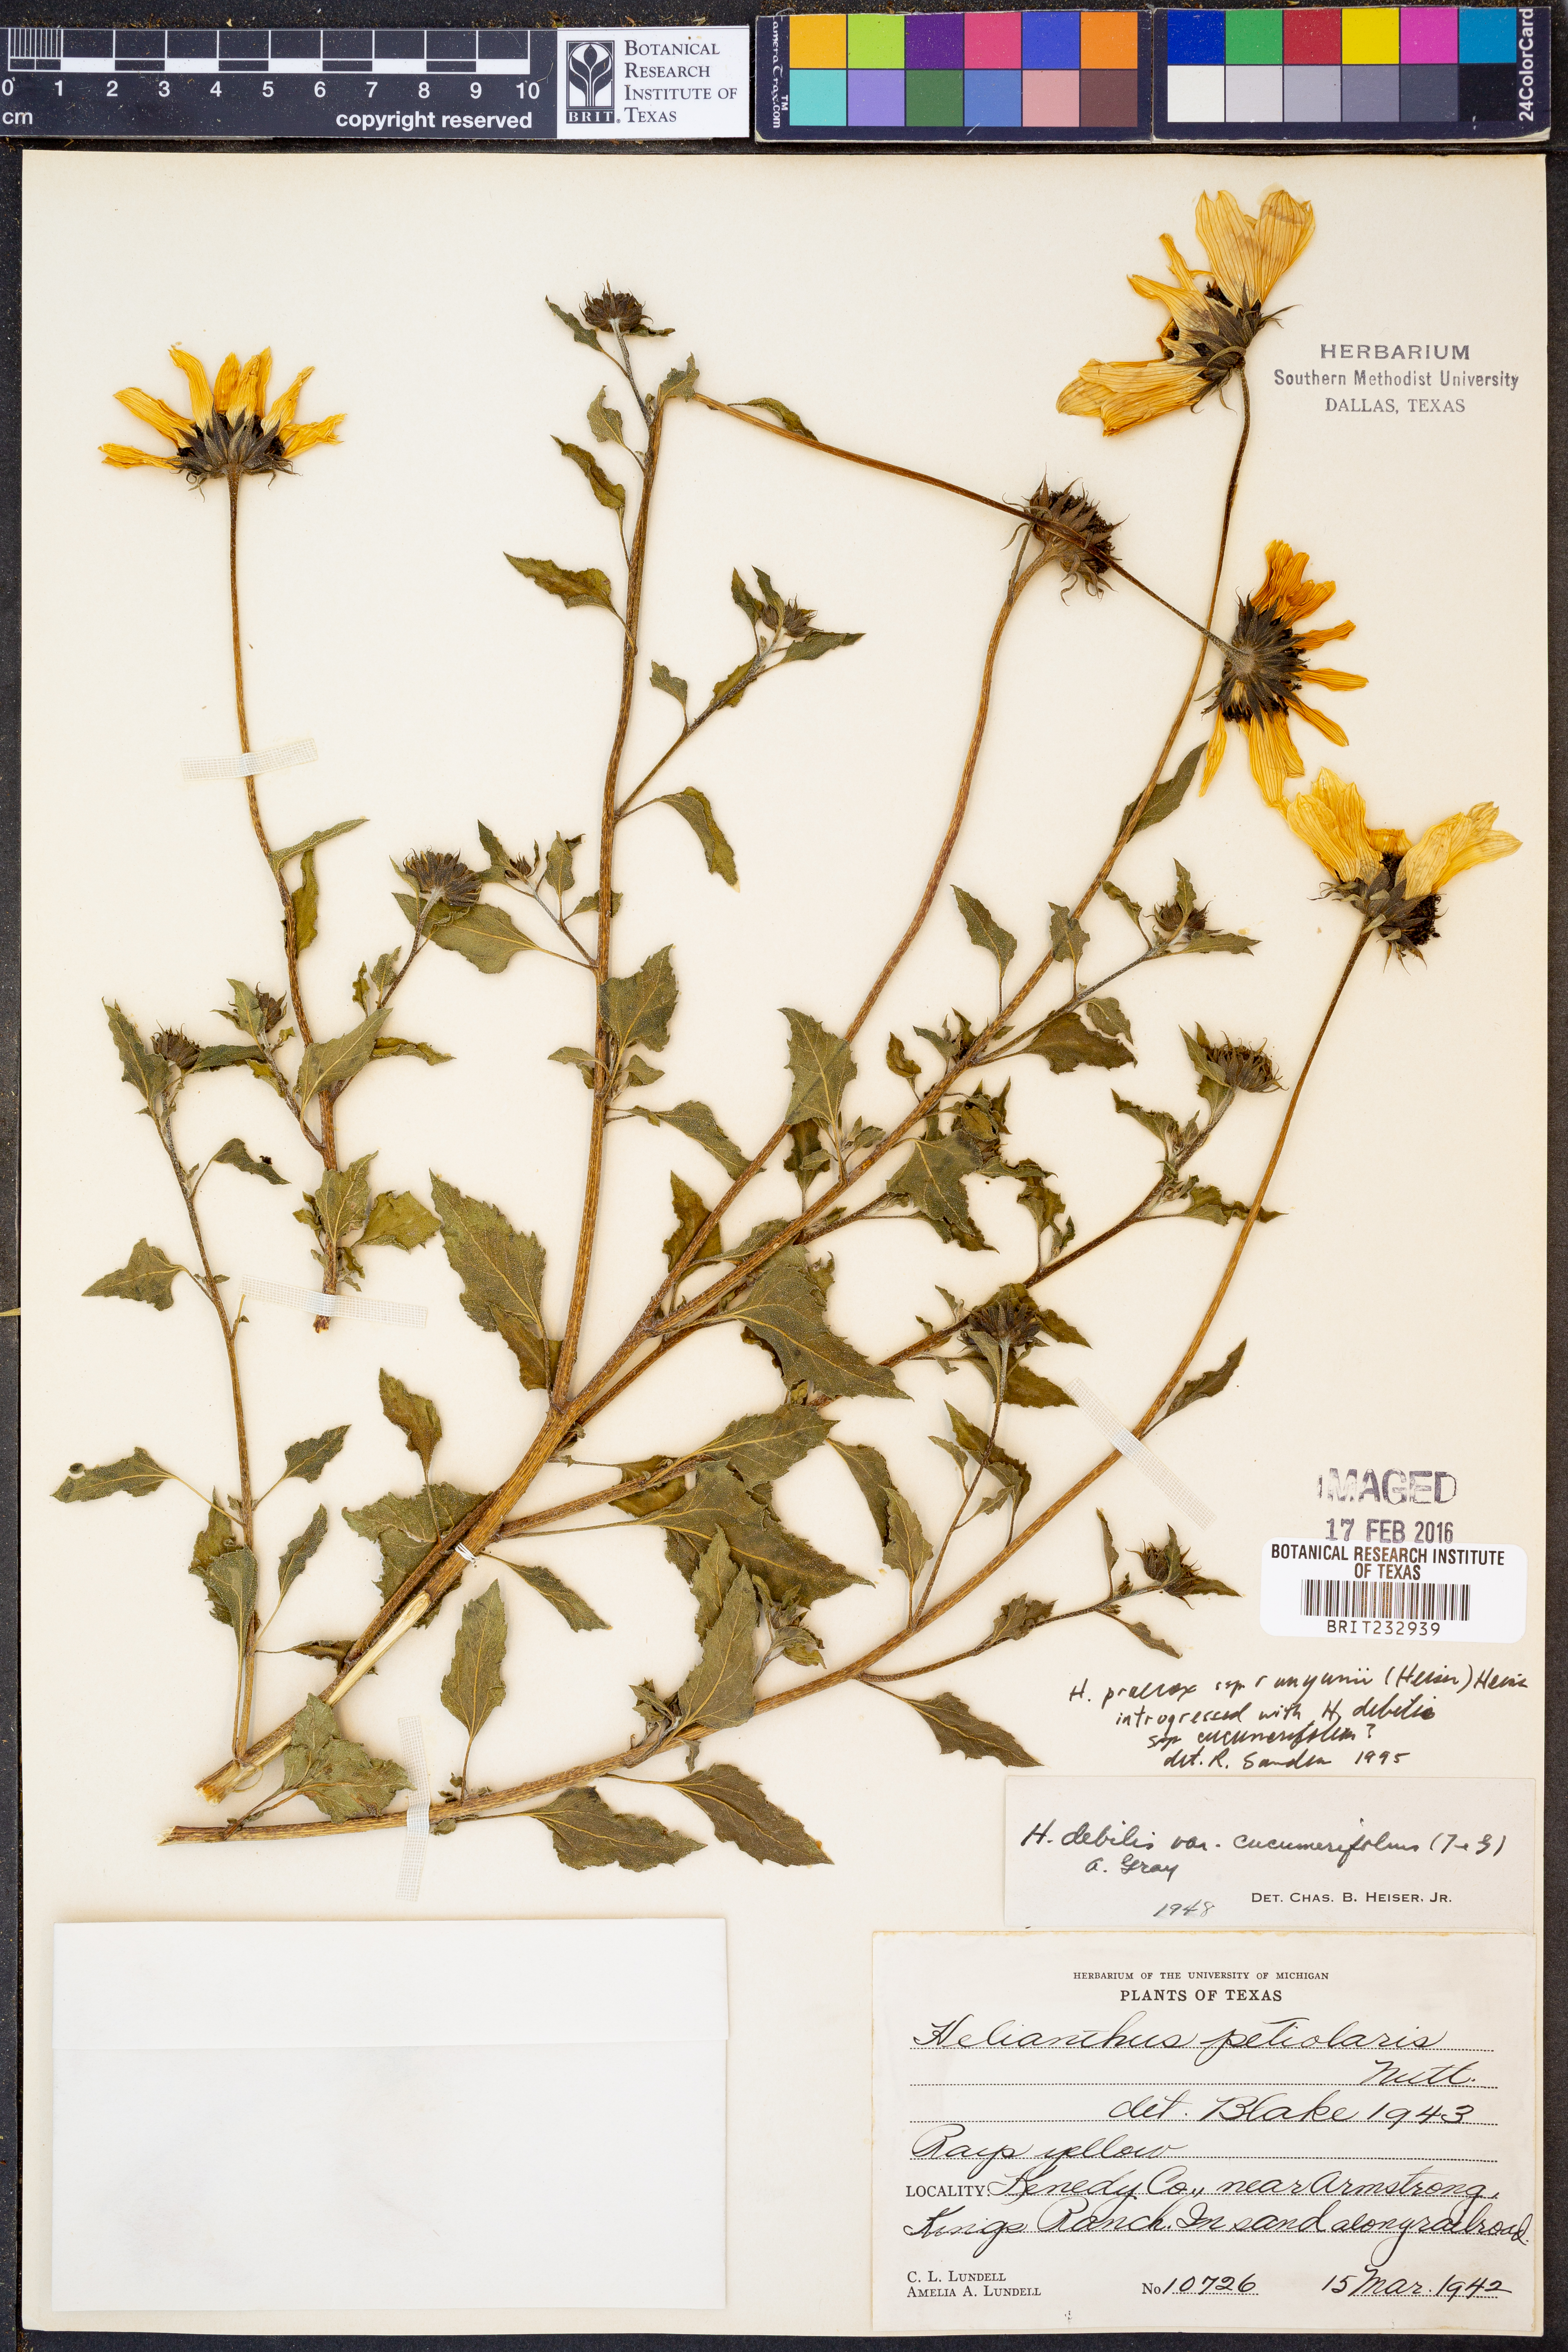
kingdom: Plantae
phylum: Tracheophyta
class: Magnoliopsida
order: Asterales
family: Asteraceae
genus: Helianthus
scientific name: Helianthus praecox
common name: Texas sunflower
